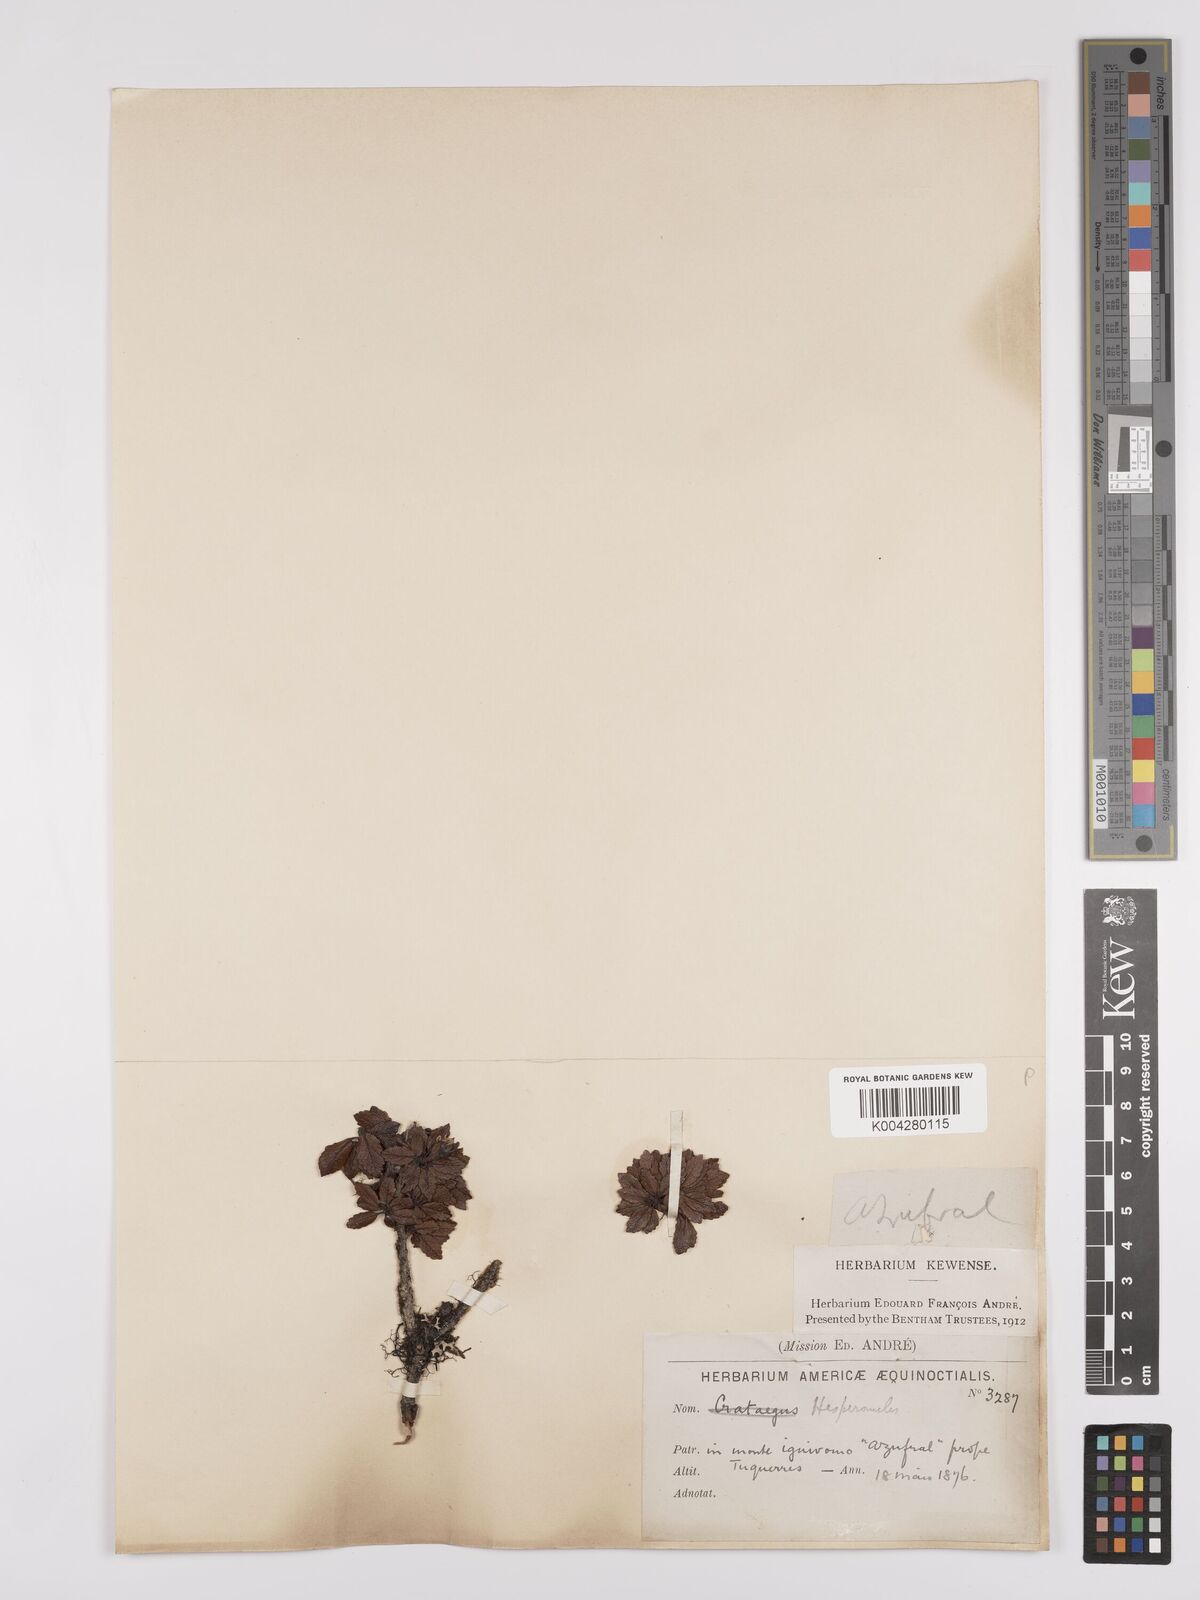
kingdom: Plantae
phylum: Tracheophyta
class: Magnoliopsida
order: Rosales
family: Rosaceae
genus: Hesperomeles
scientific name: Hesperomeles obtusifolia
